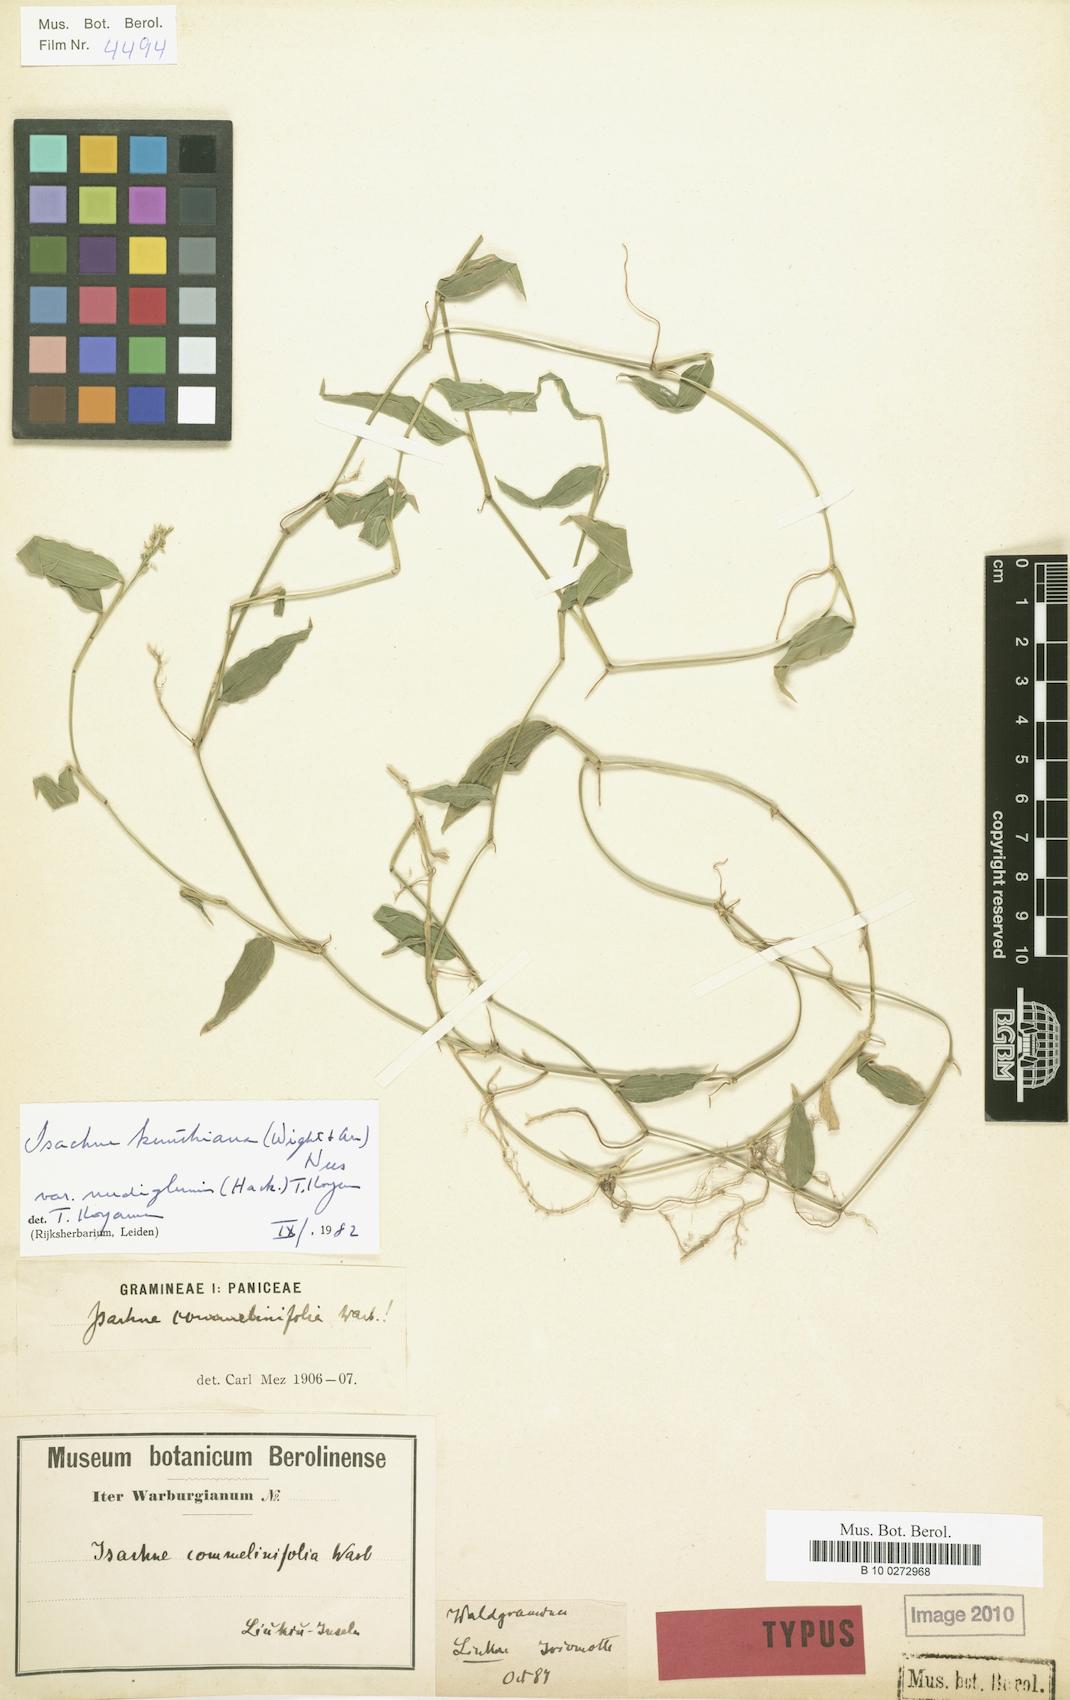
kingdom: Plantae
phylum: Tracheophyta
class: Liliopsida
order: Poales
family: Poaceae
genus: Isachne
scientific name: Isachne commelinifolia
